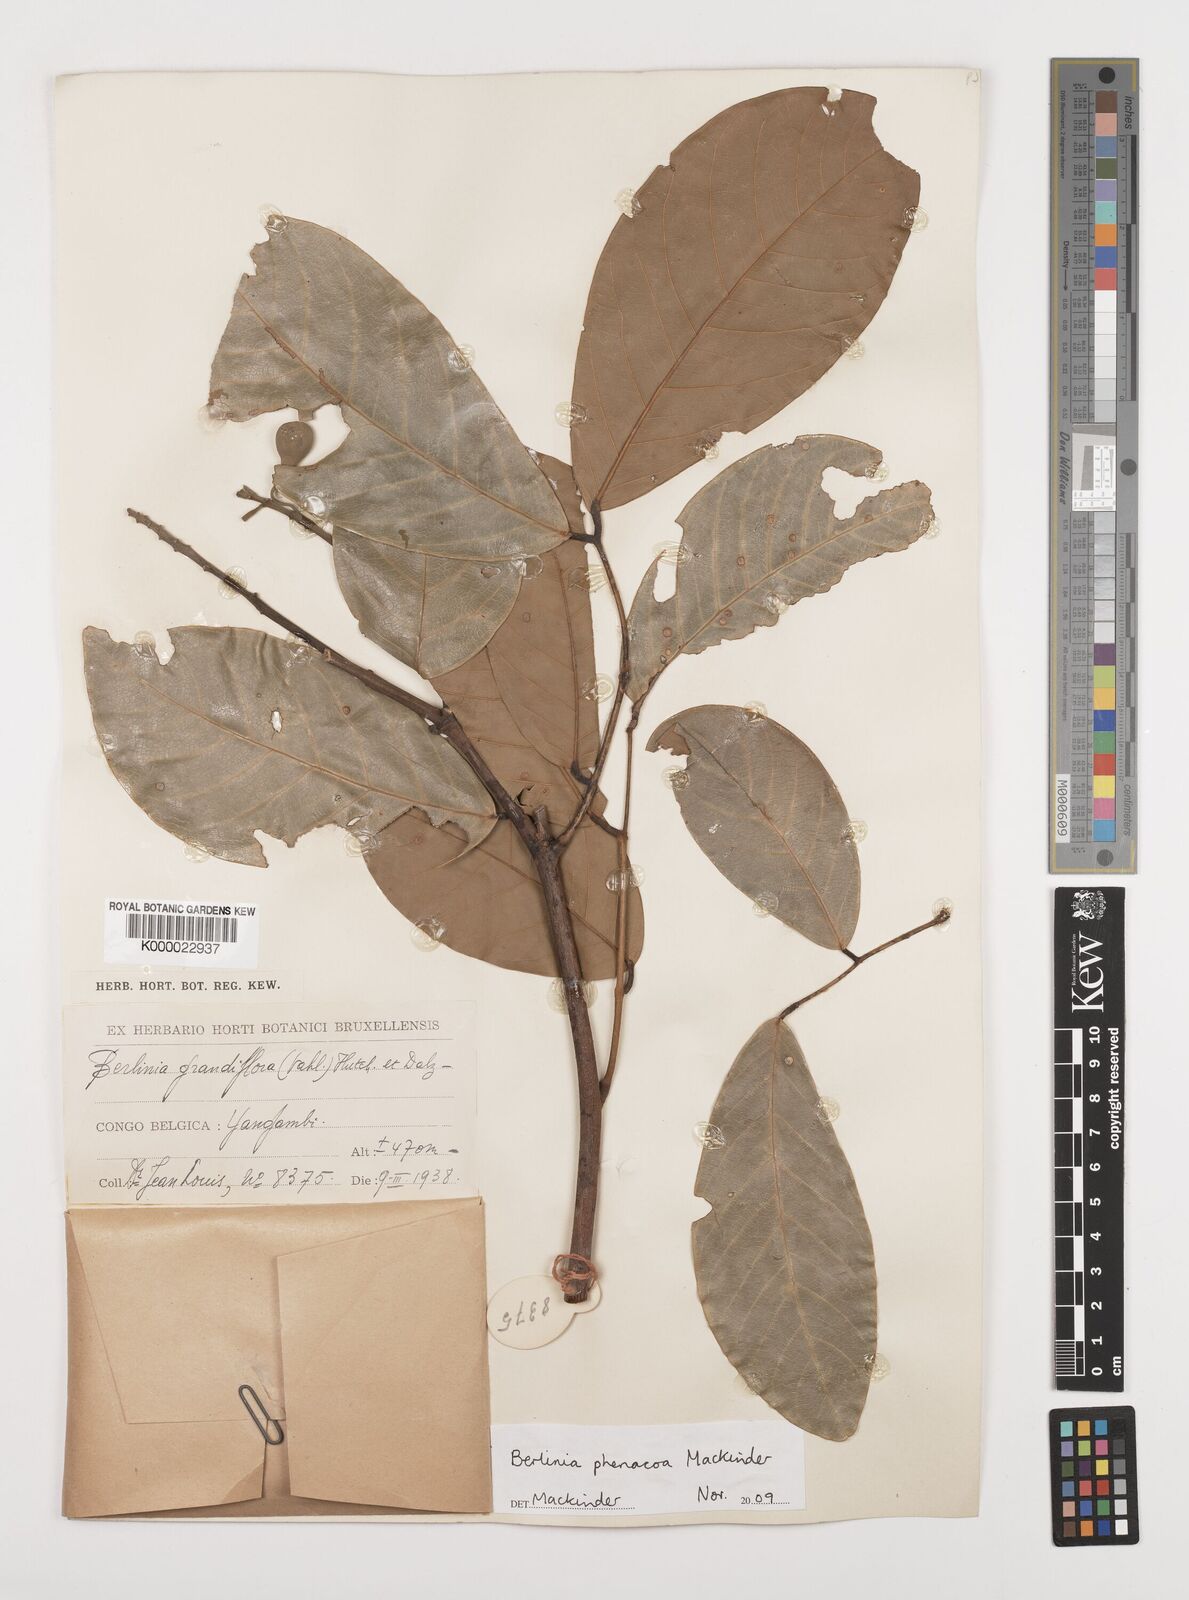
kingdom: Plantae
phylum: Tracheophyta
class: Magnoliopsida
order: Fabales
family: Fabaceae
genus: Berlinia
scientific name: Berlinia phenacoa
